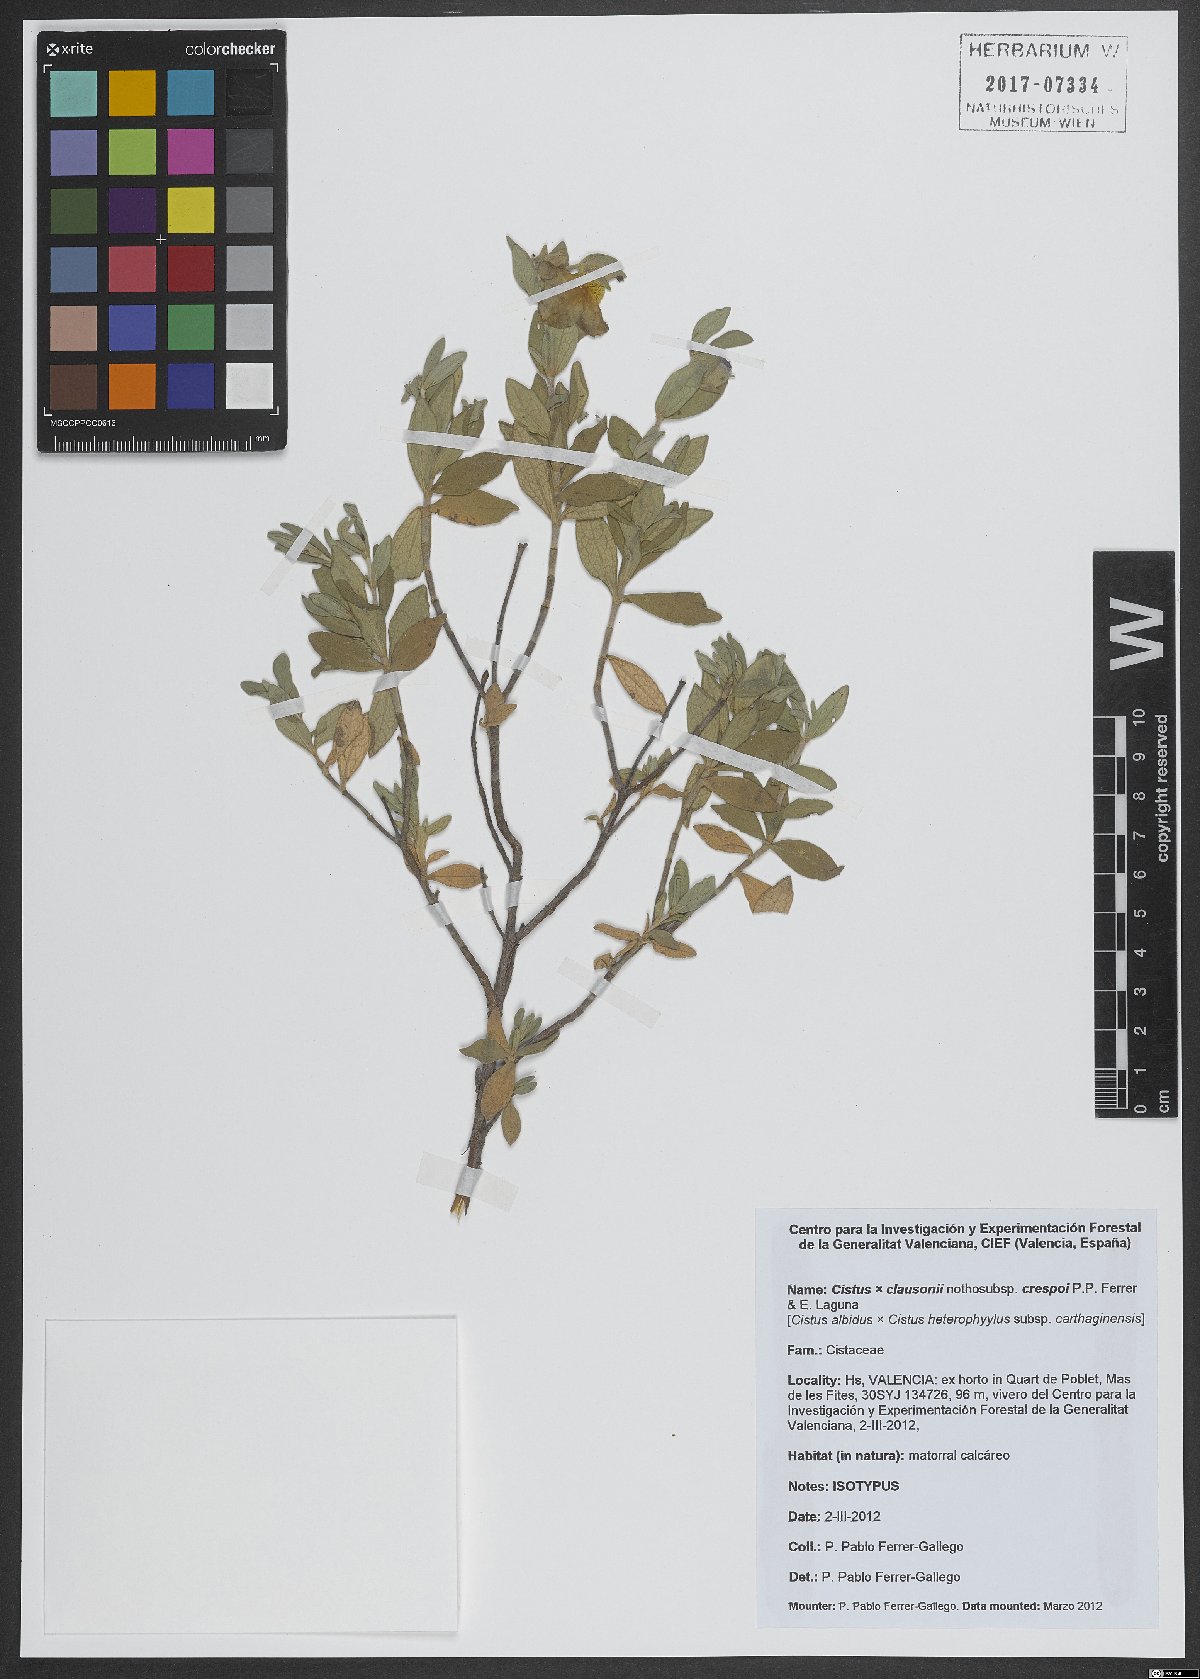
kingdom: Plantae
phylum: Tracheophyta
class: Magnoliopsida
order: Malvales
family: Cistaceae
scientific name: Cistaceae
